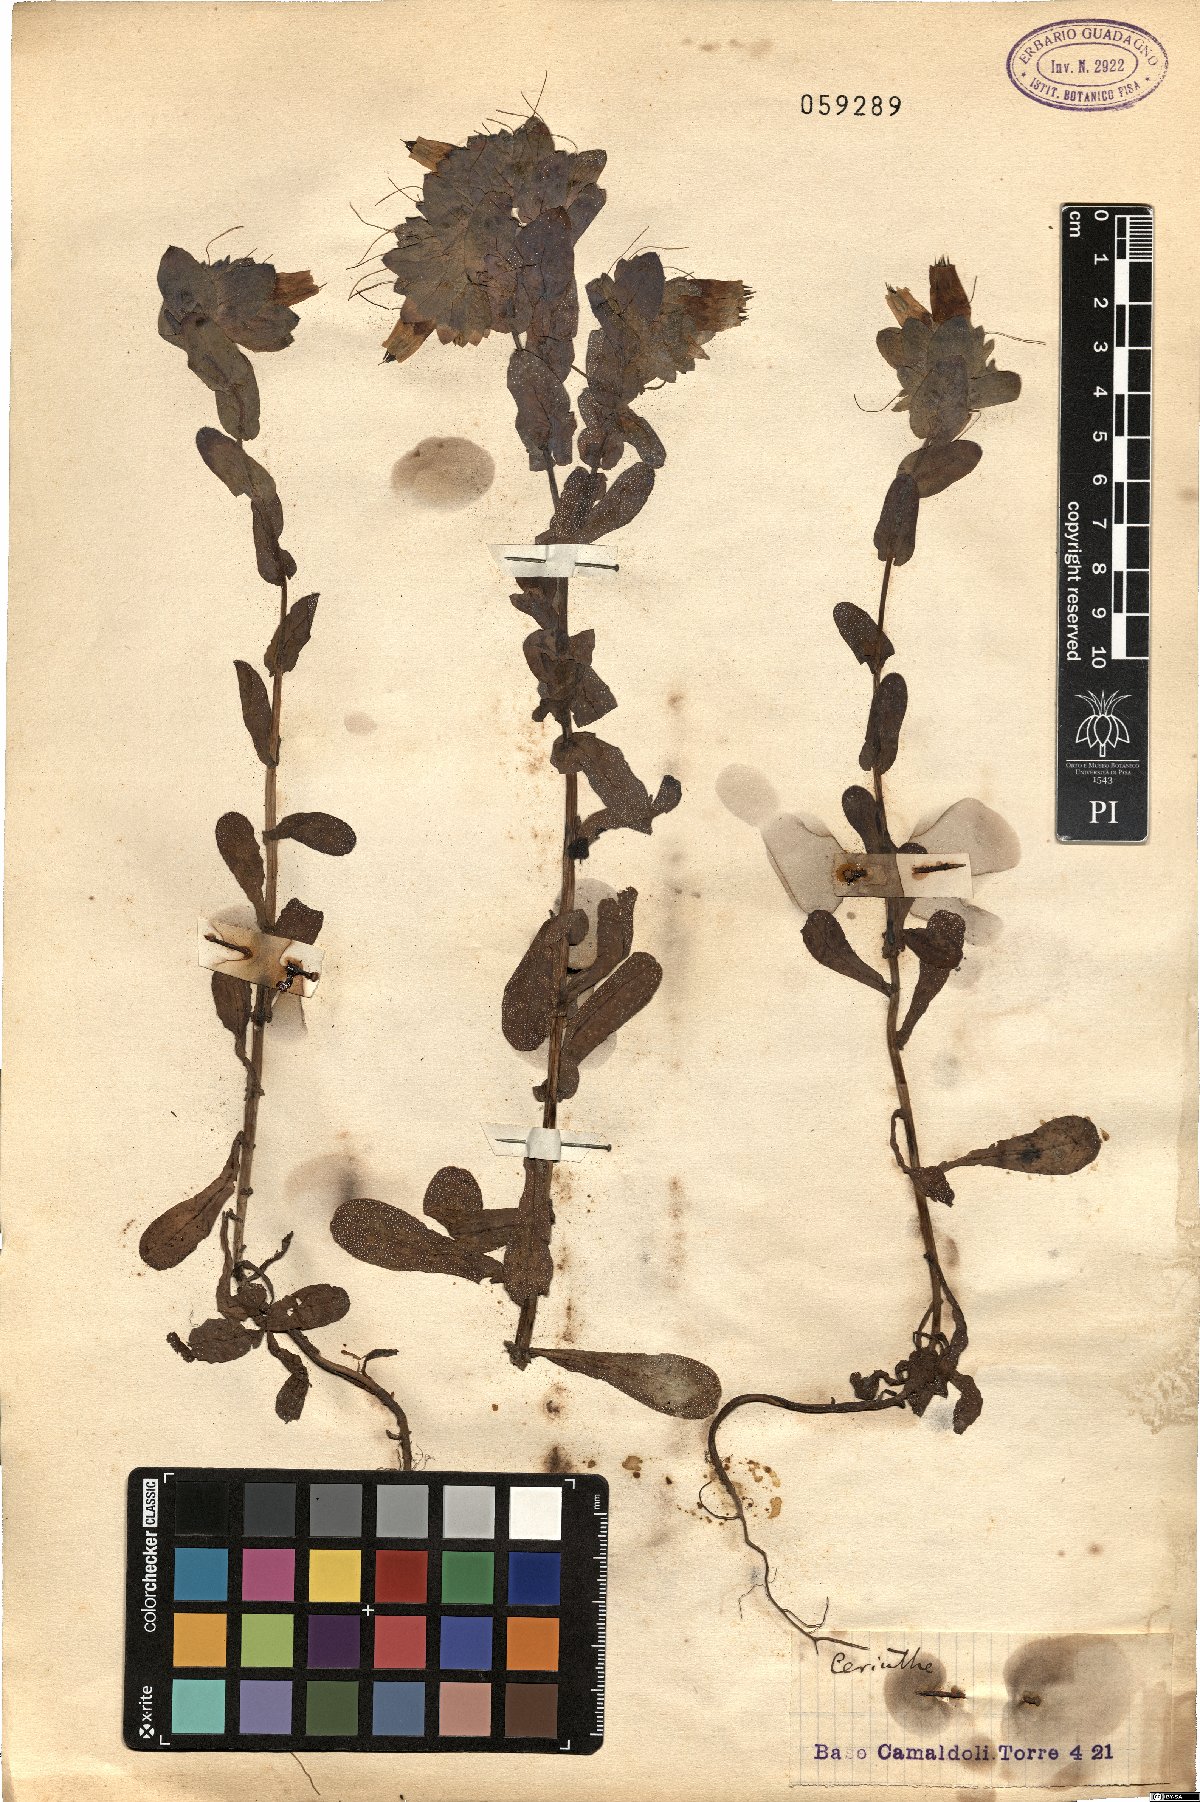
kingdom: Plantae
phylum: Tracheophyta
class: Magnoliopsida
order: Boraginales
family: Boraginaceae
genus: Cerinthe
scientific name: Cerinthe
